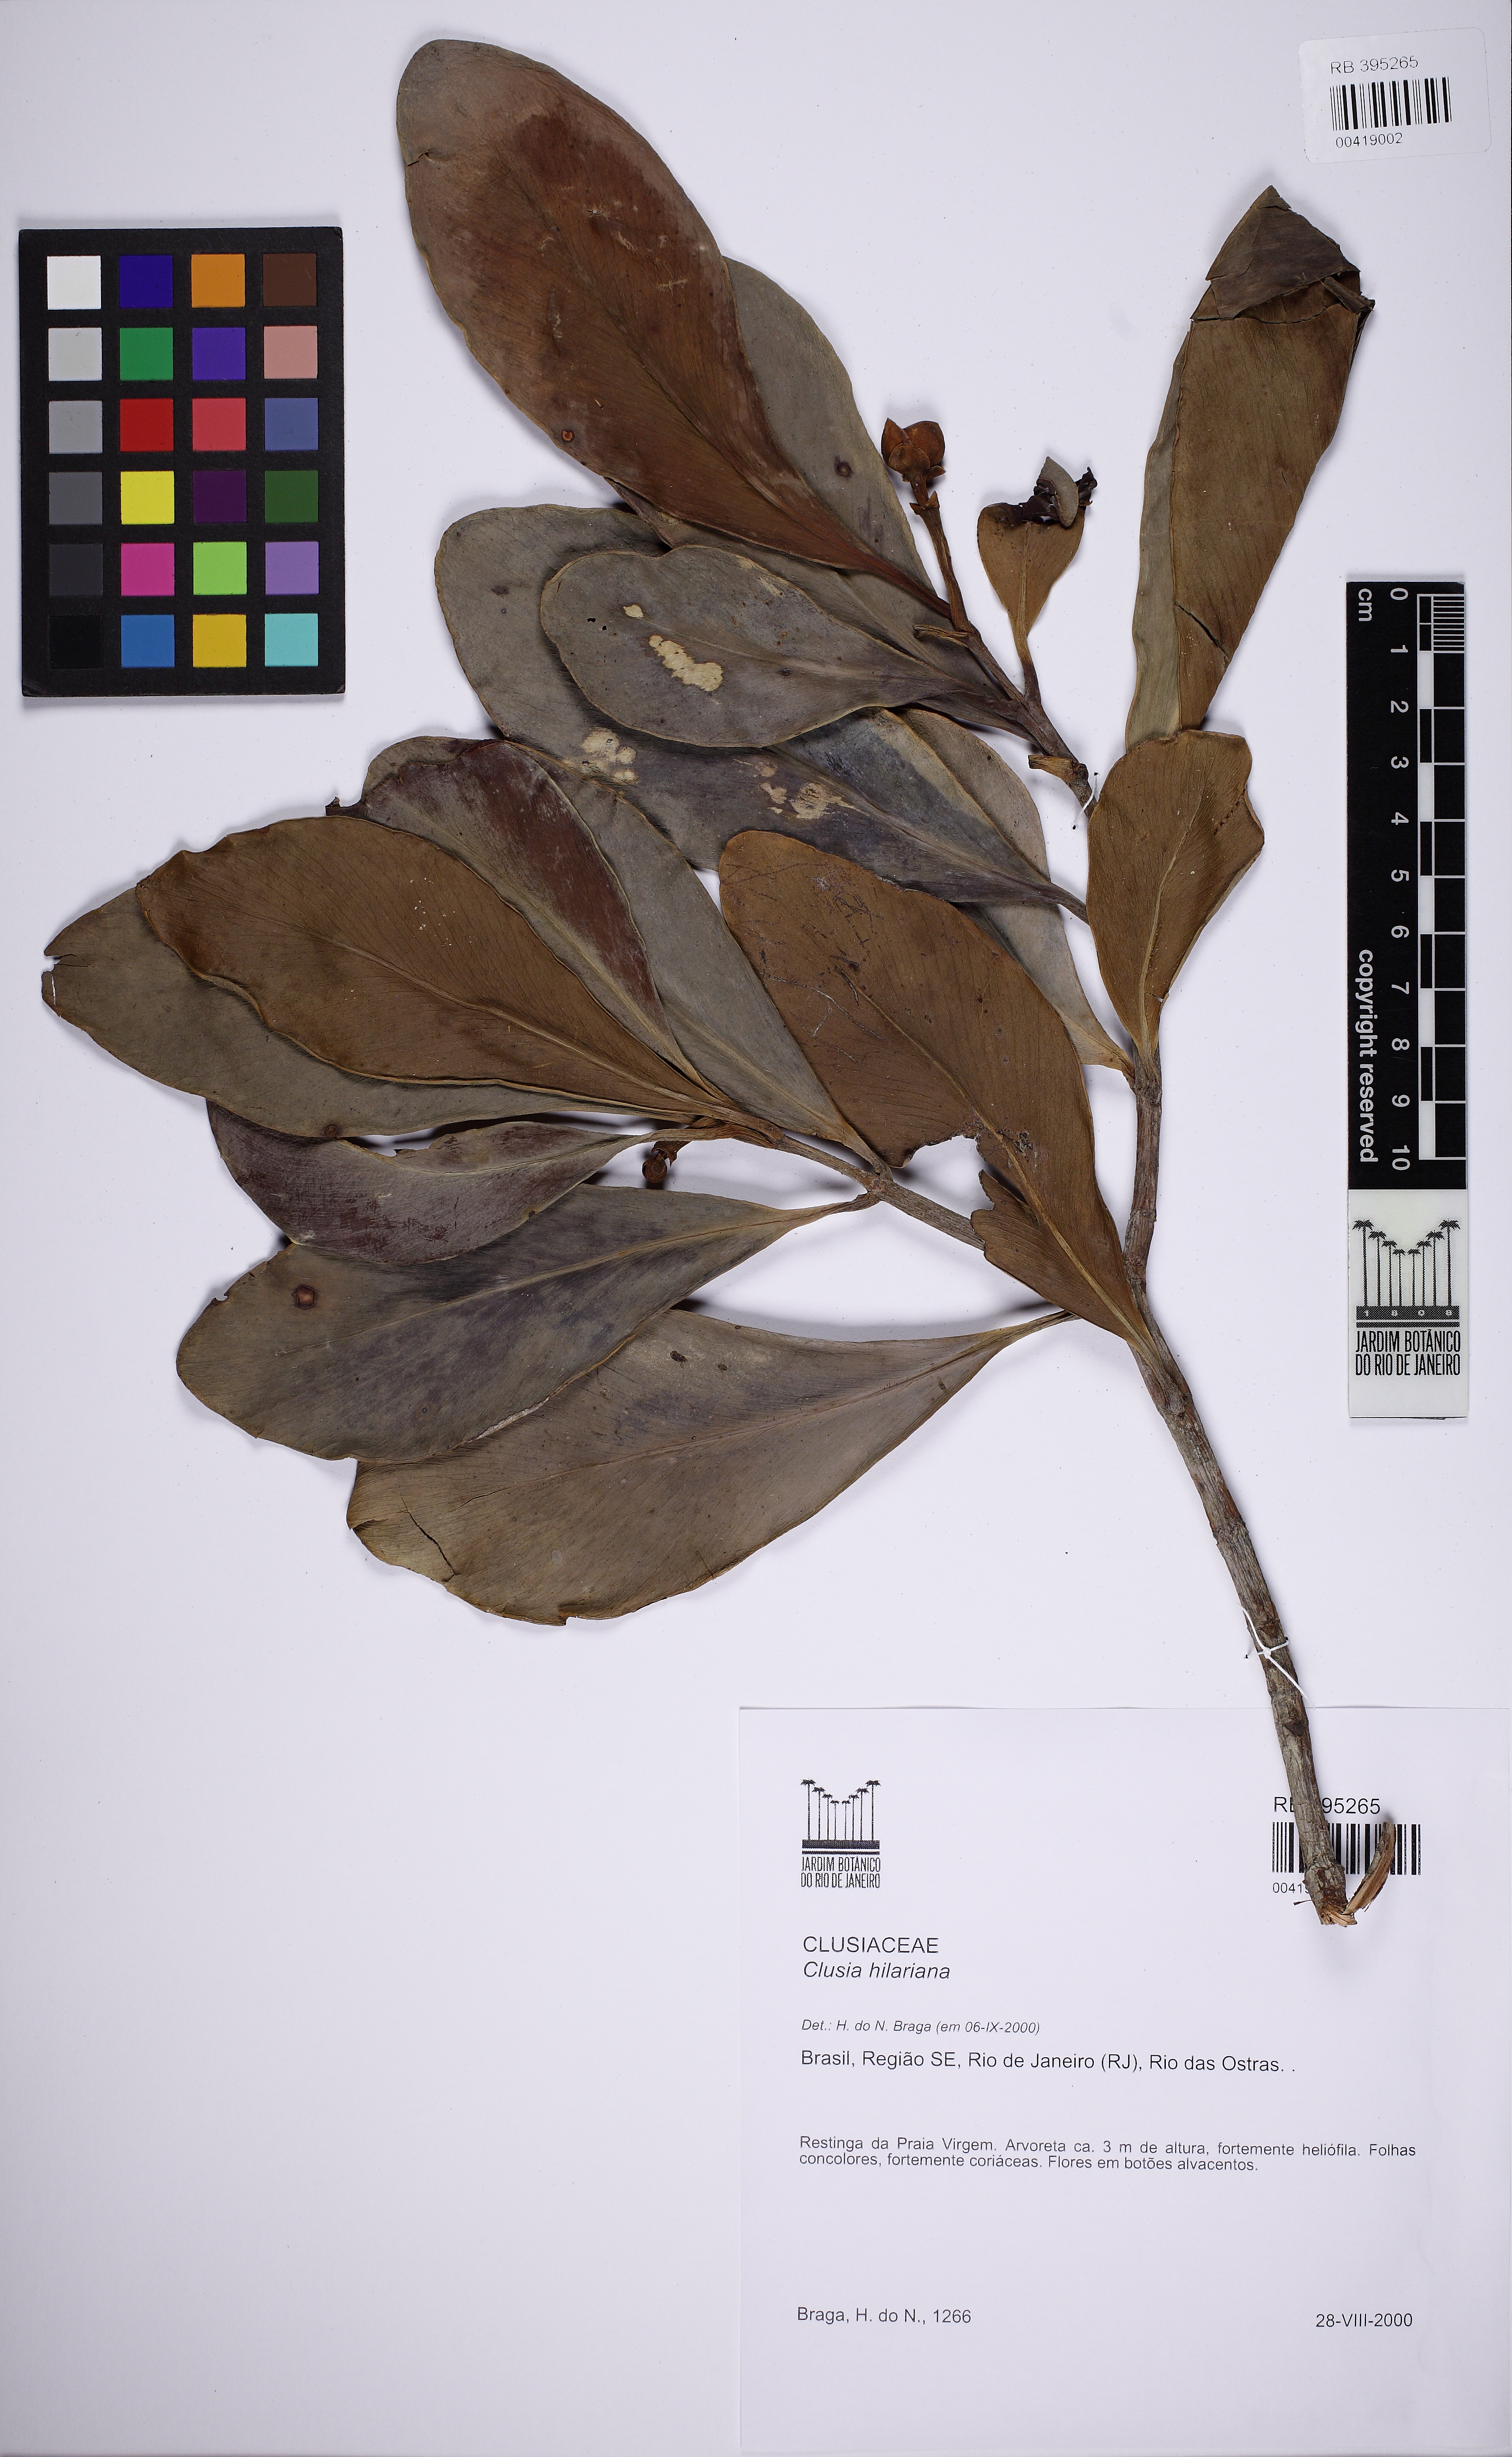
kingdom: Plantae
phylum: Tracheophyta
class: Magnoliopsida
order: Malpighiales
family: Clusiaceae
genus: Clusia
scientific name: Clusia hilariana
